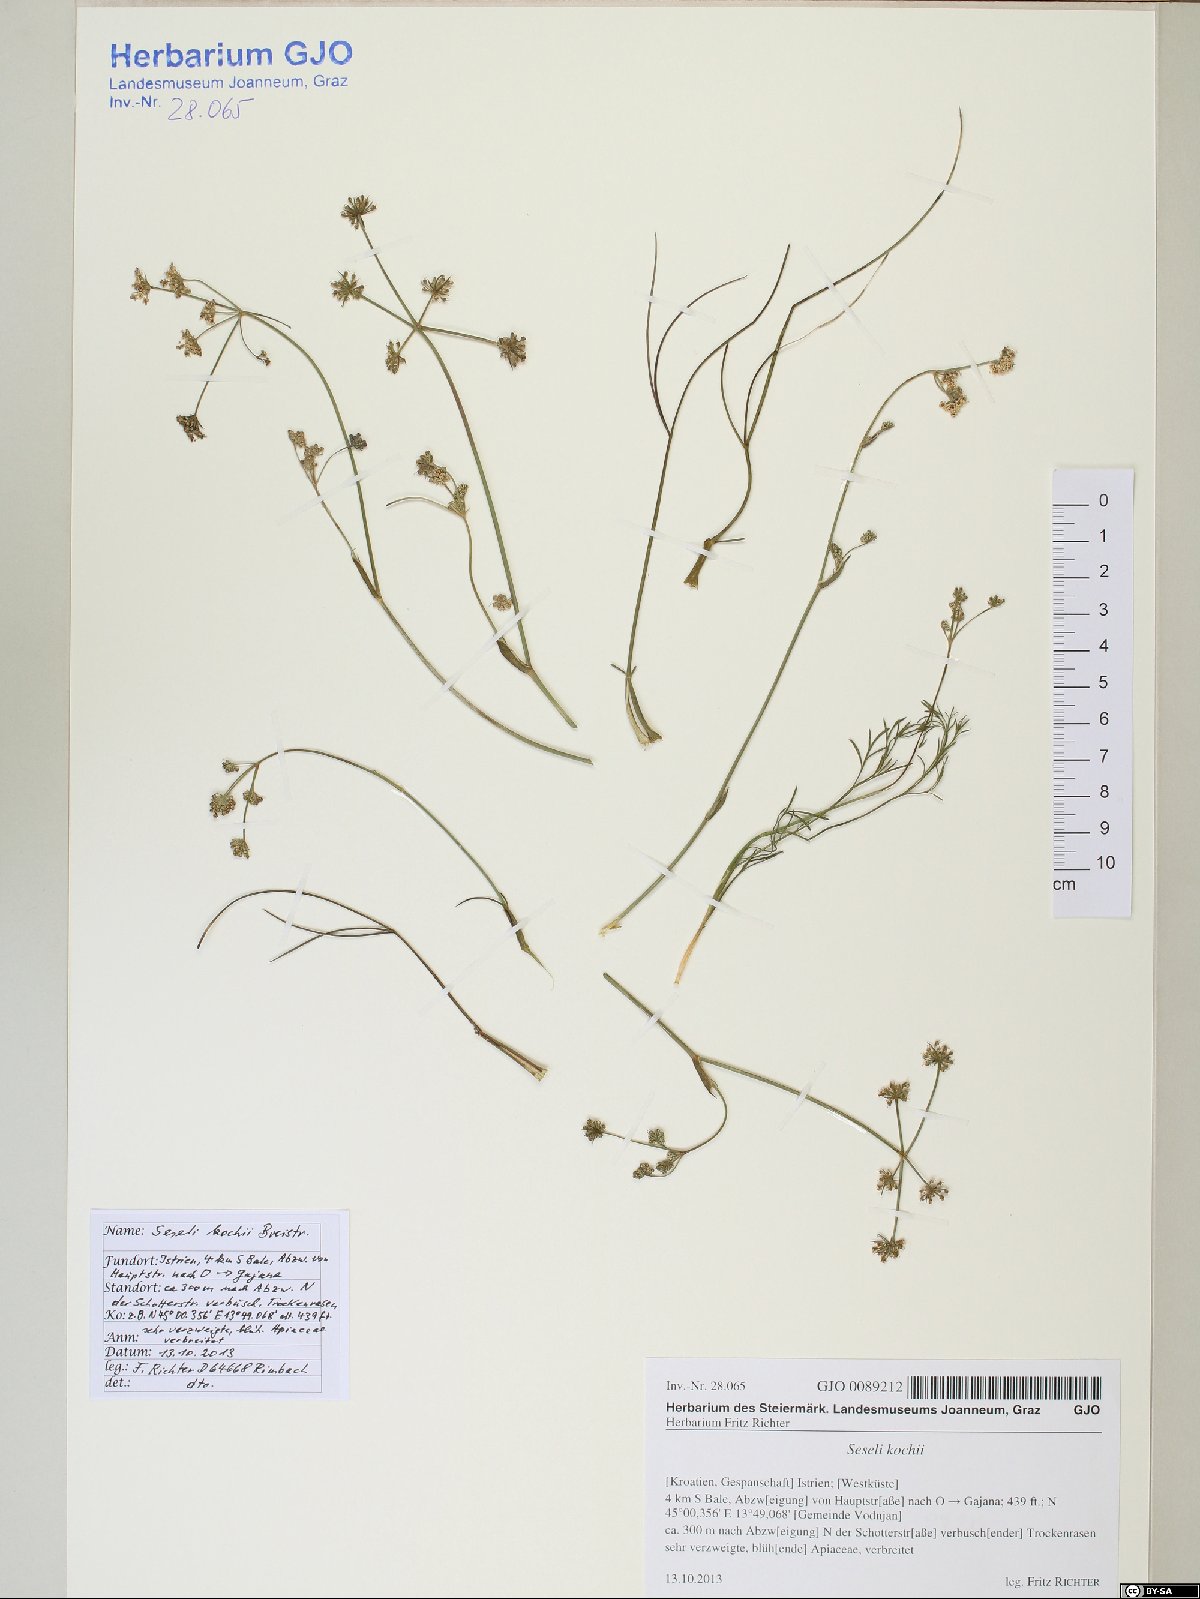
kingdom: Plantae
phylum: Tracheophyta
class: Magnoliopsida
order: Apiales
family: Apiaceae
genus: Seseli
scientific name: Seseli gouanii
